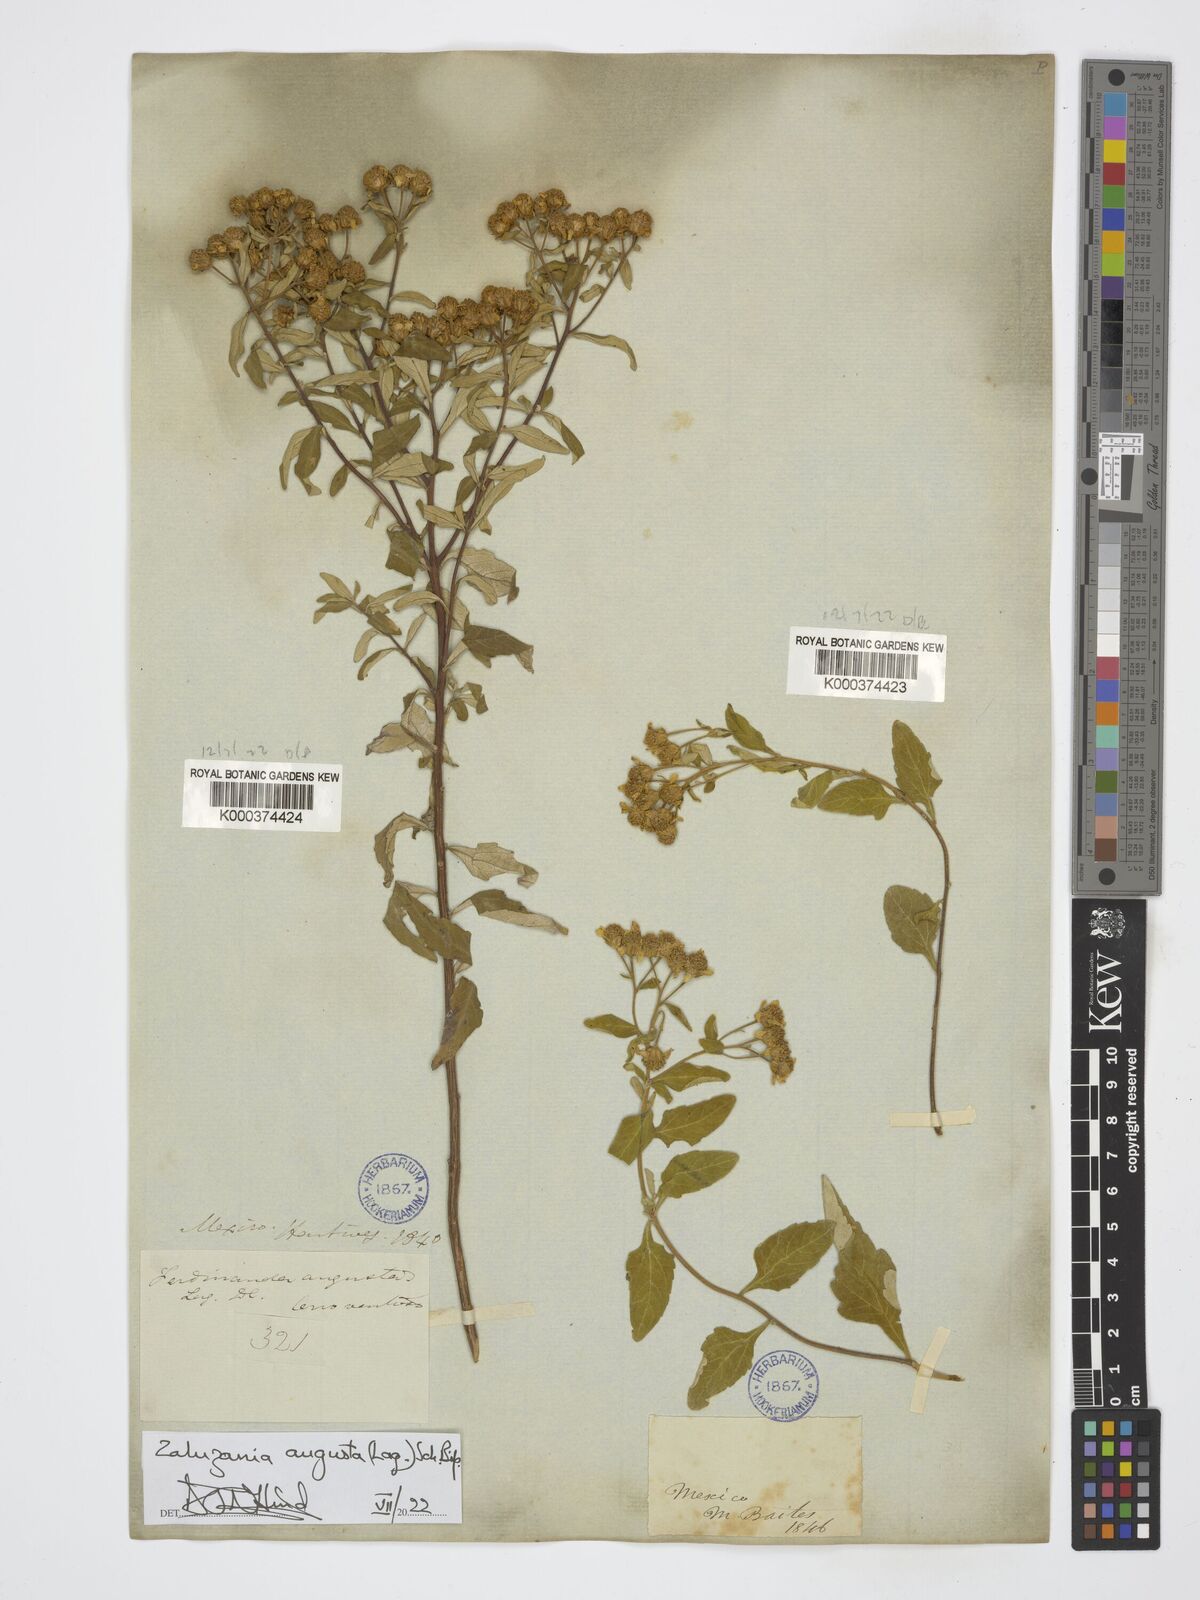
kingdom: Plantae
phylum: Tracheophyta
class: Magnoliopsida
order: Asterales
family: Asteraceae
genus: Zaluzania
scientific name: Zaluzania augusta
